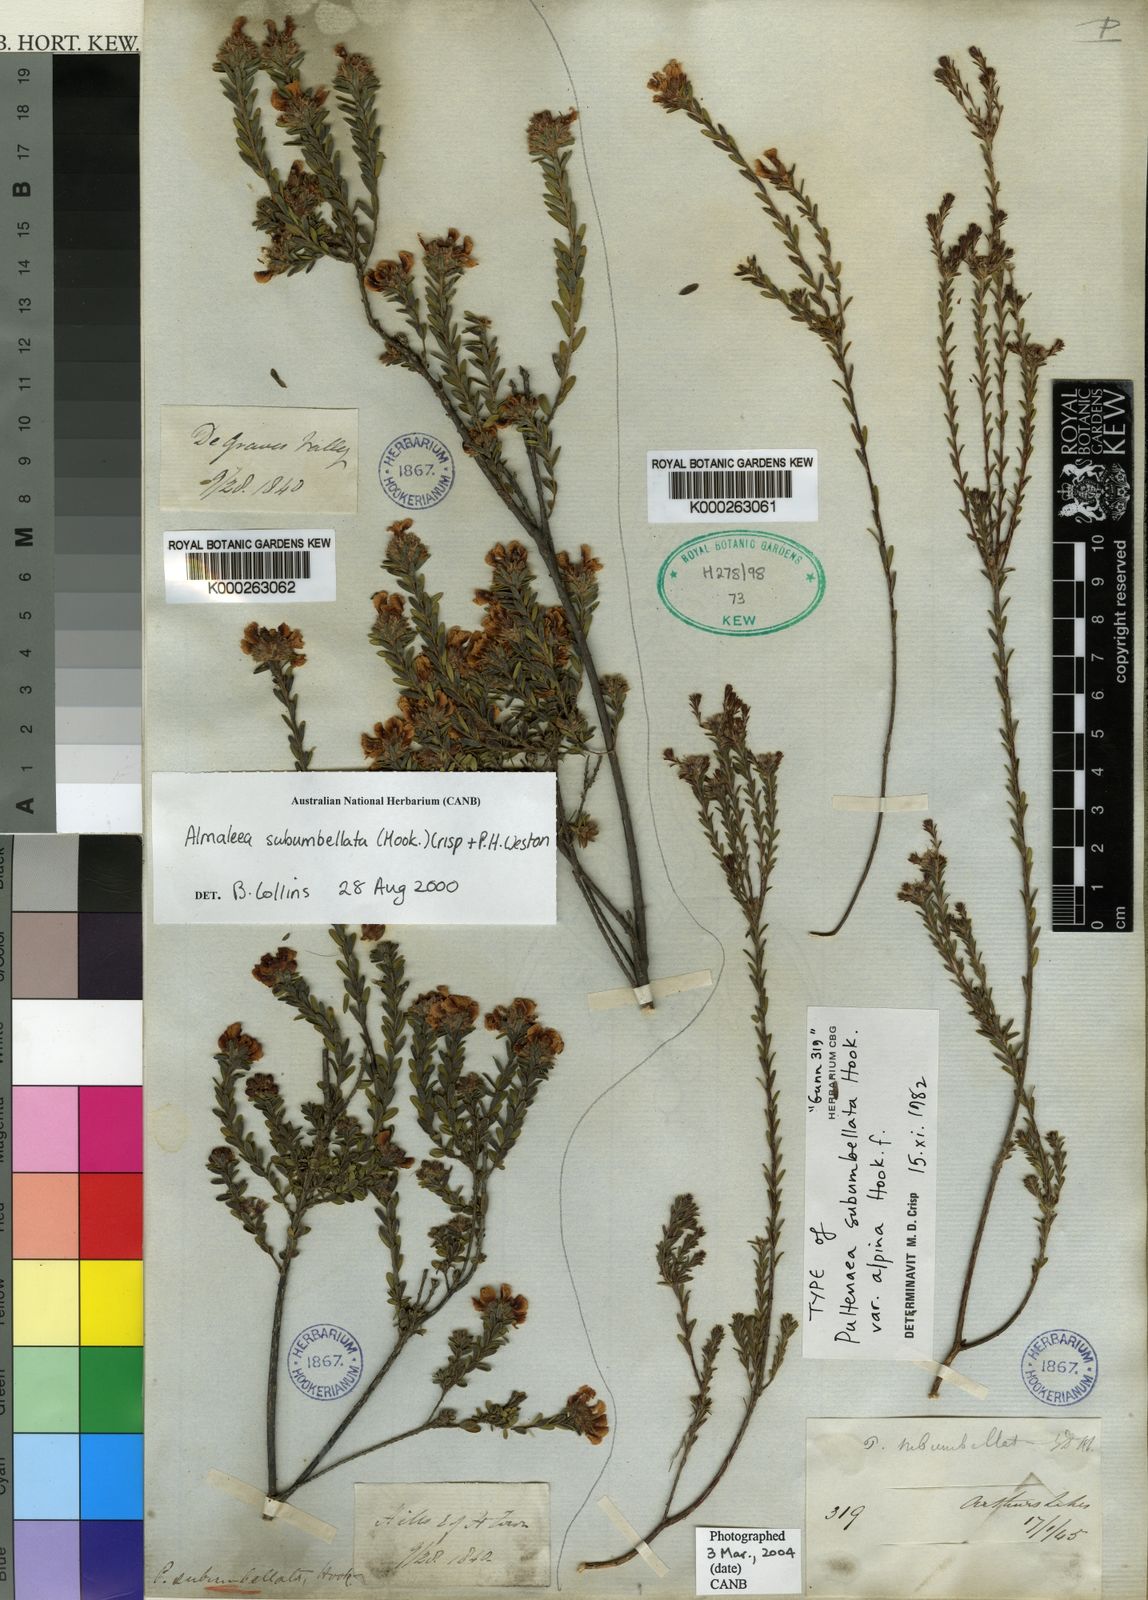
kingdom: Plantae
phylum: Tracheophyta
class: Magnoliopsida
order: Fabales
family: Fabaceae
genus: Almaleea
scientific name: Almaleea subumbellata
